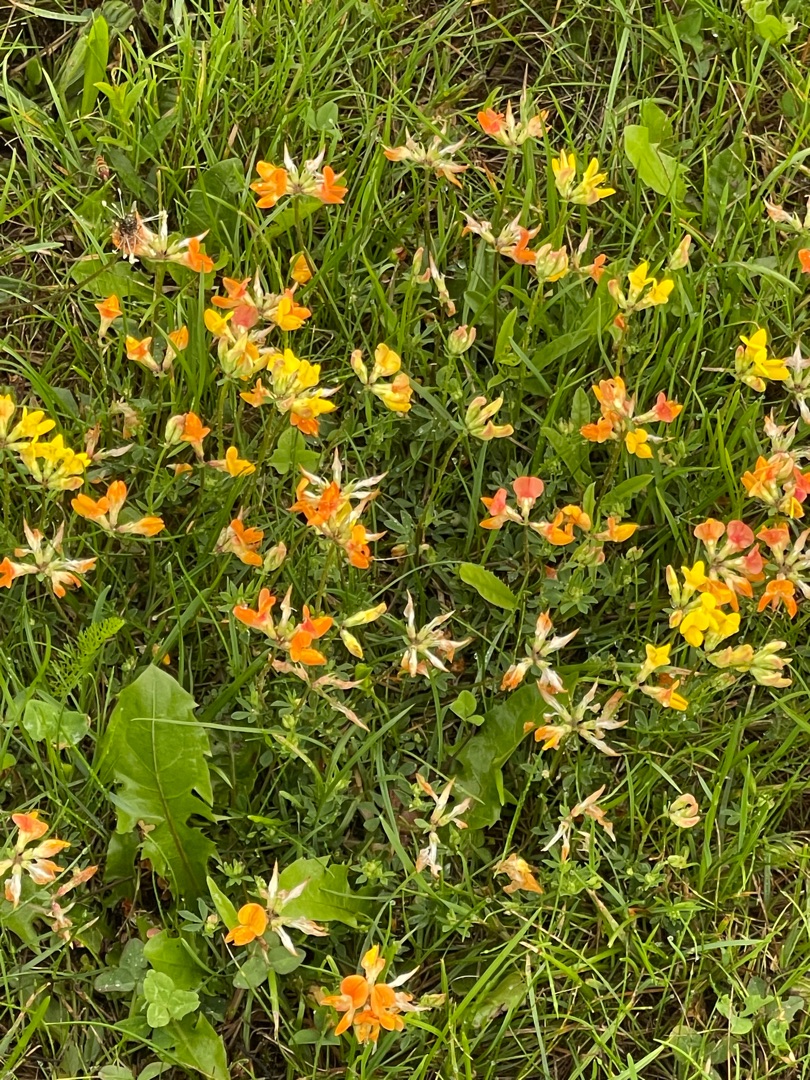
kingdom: Plantae
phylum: Tracheophyta
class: Magnoliopsida
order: Fabales
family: Fabaceae
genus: Lotus
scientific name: Lotus corniculatus
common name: Almindelig kællingetand
